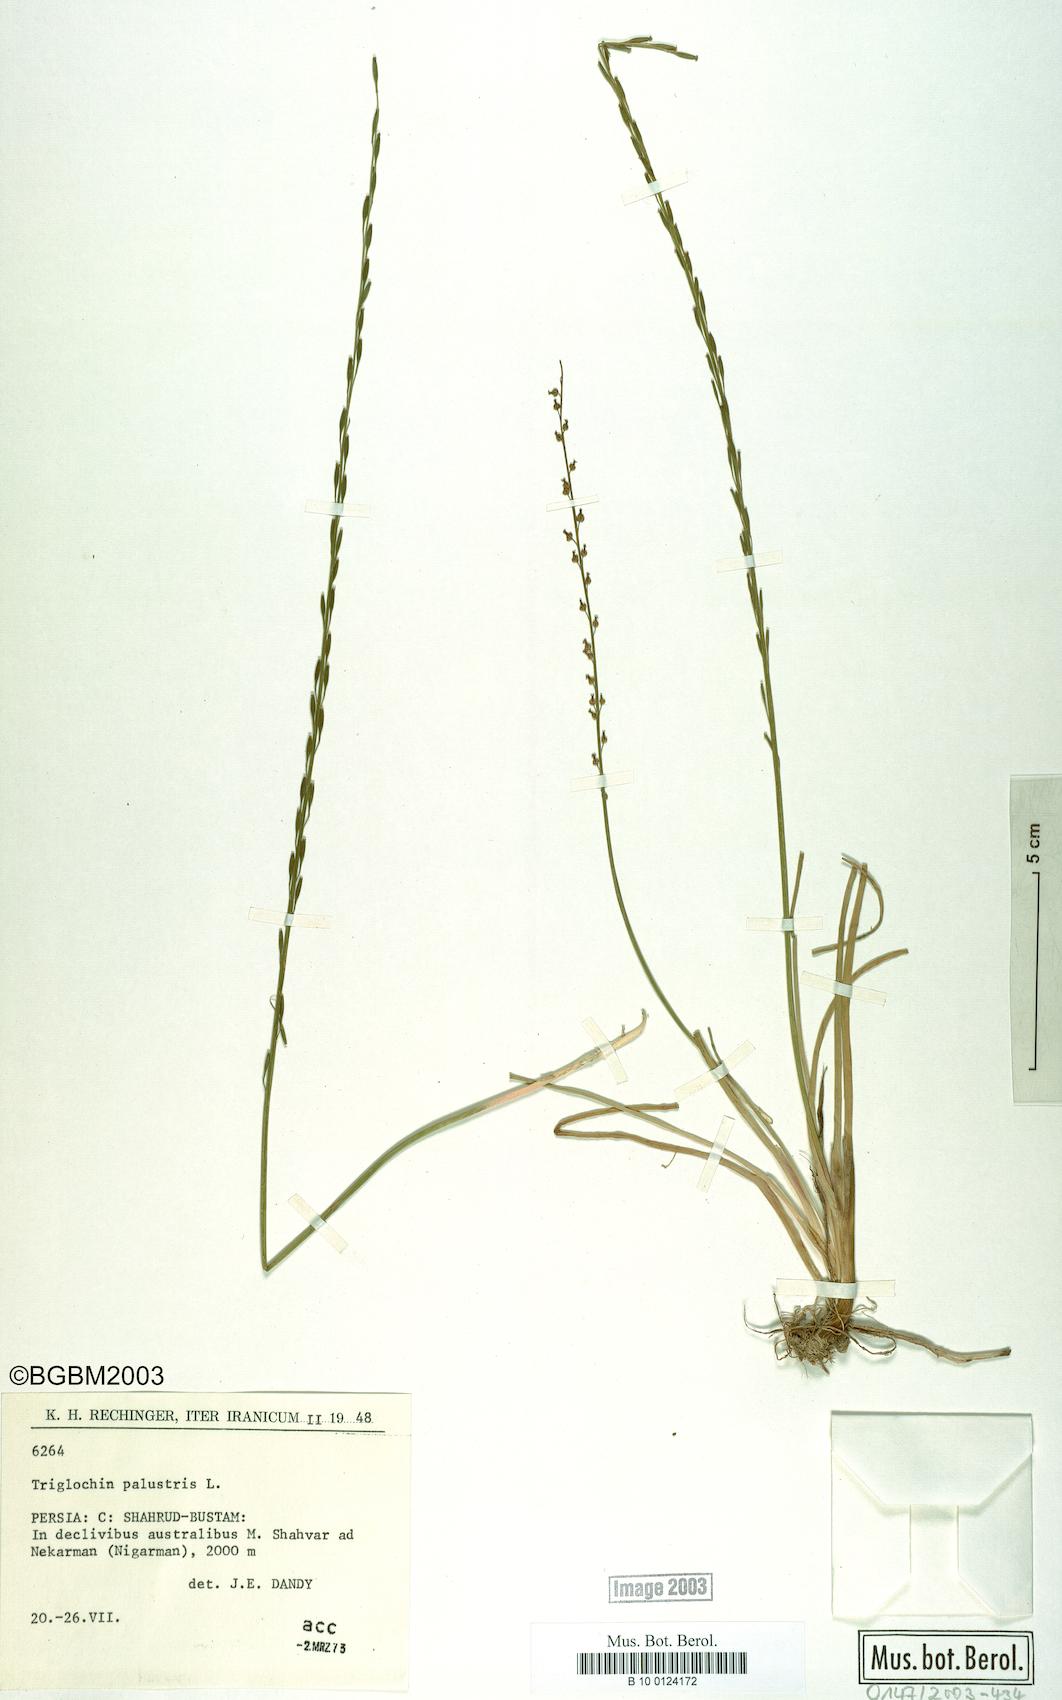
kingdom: Plantae
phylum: Tracheophyta
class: Liliopsida
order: Alismatales
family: Juncaginaceae
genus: Triglochin
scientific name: Triglochin palustris
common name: Marsh arrowgrass
